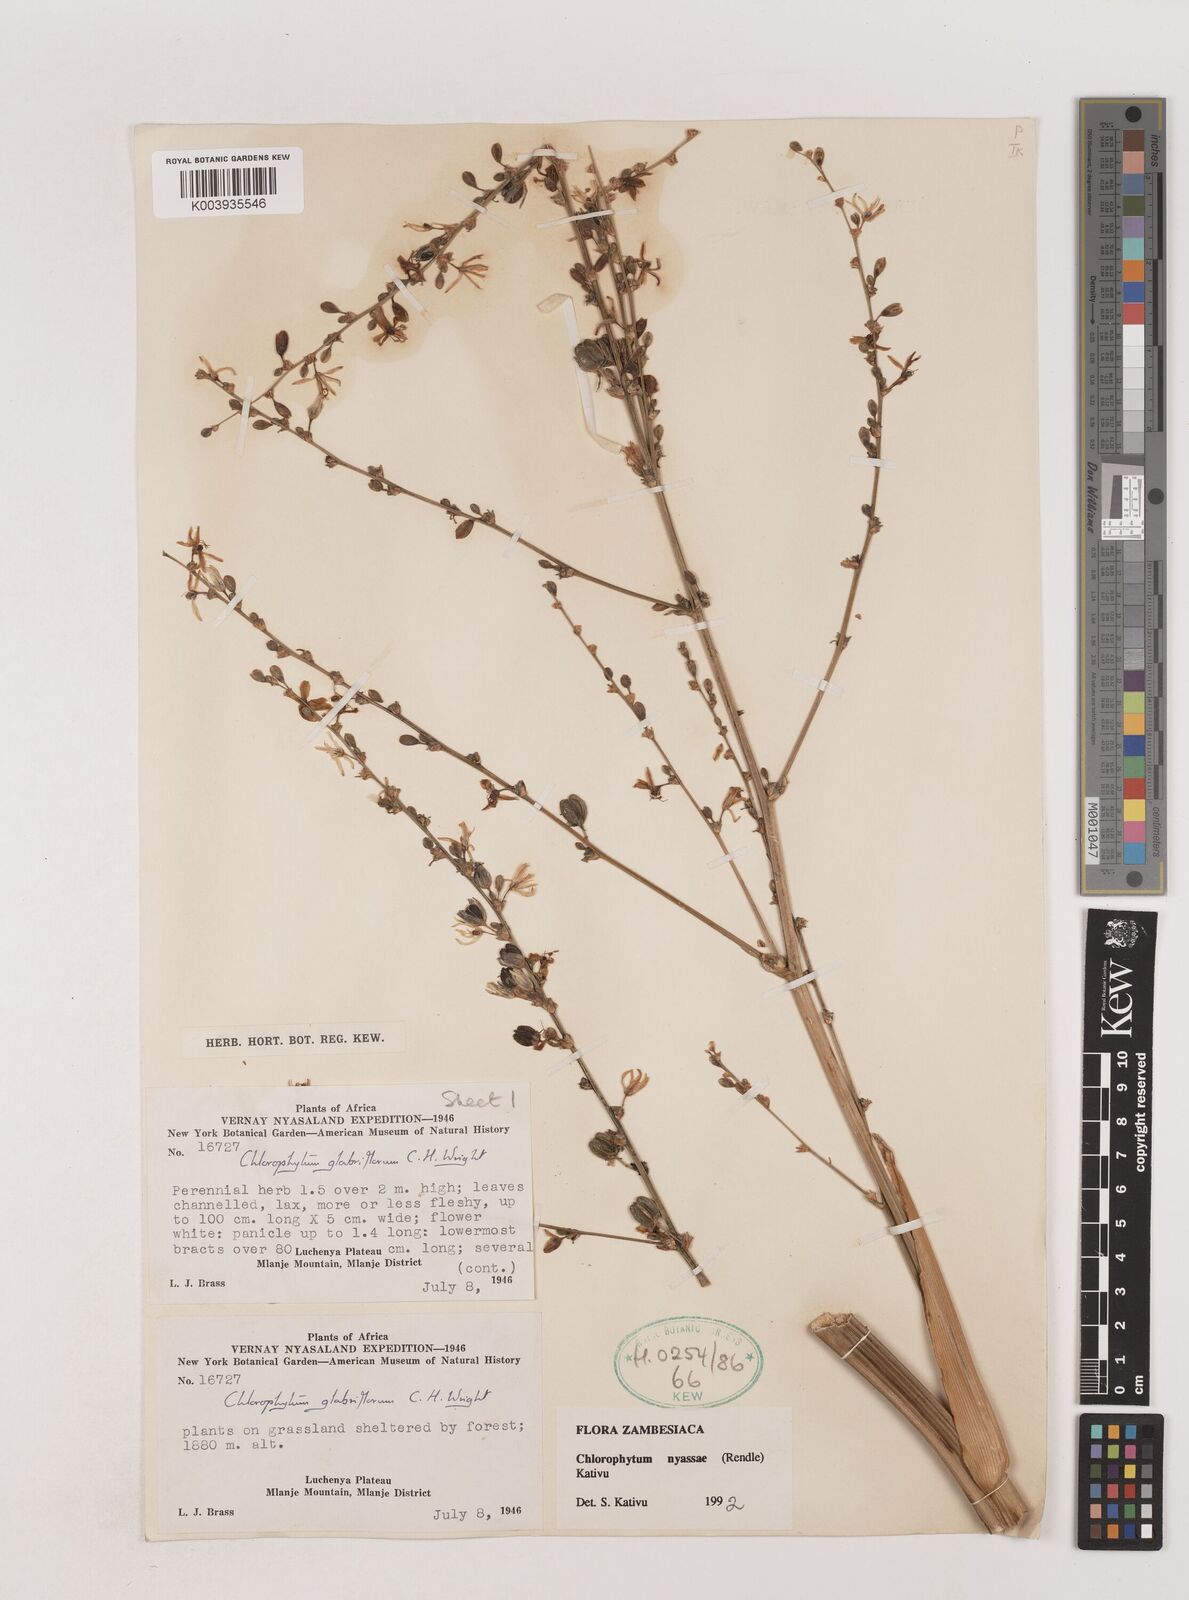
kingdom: Plantae
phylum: Tracheophyta
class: Liliopsida
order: Asparagales
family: Asparagaceae
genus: Chlorophytum
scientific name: Chlorophytum nyasae
